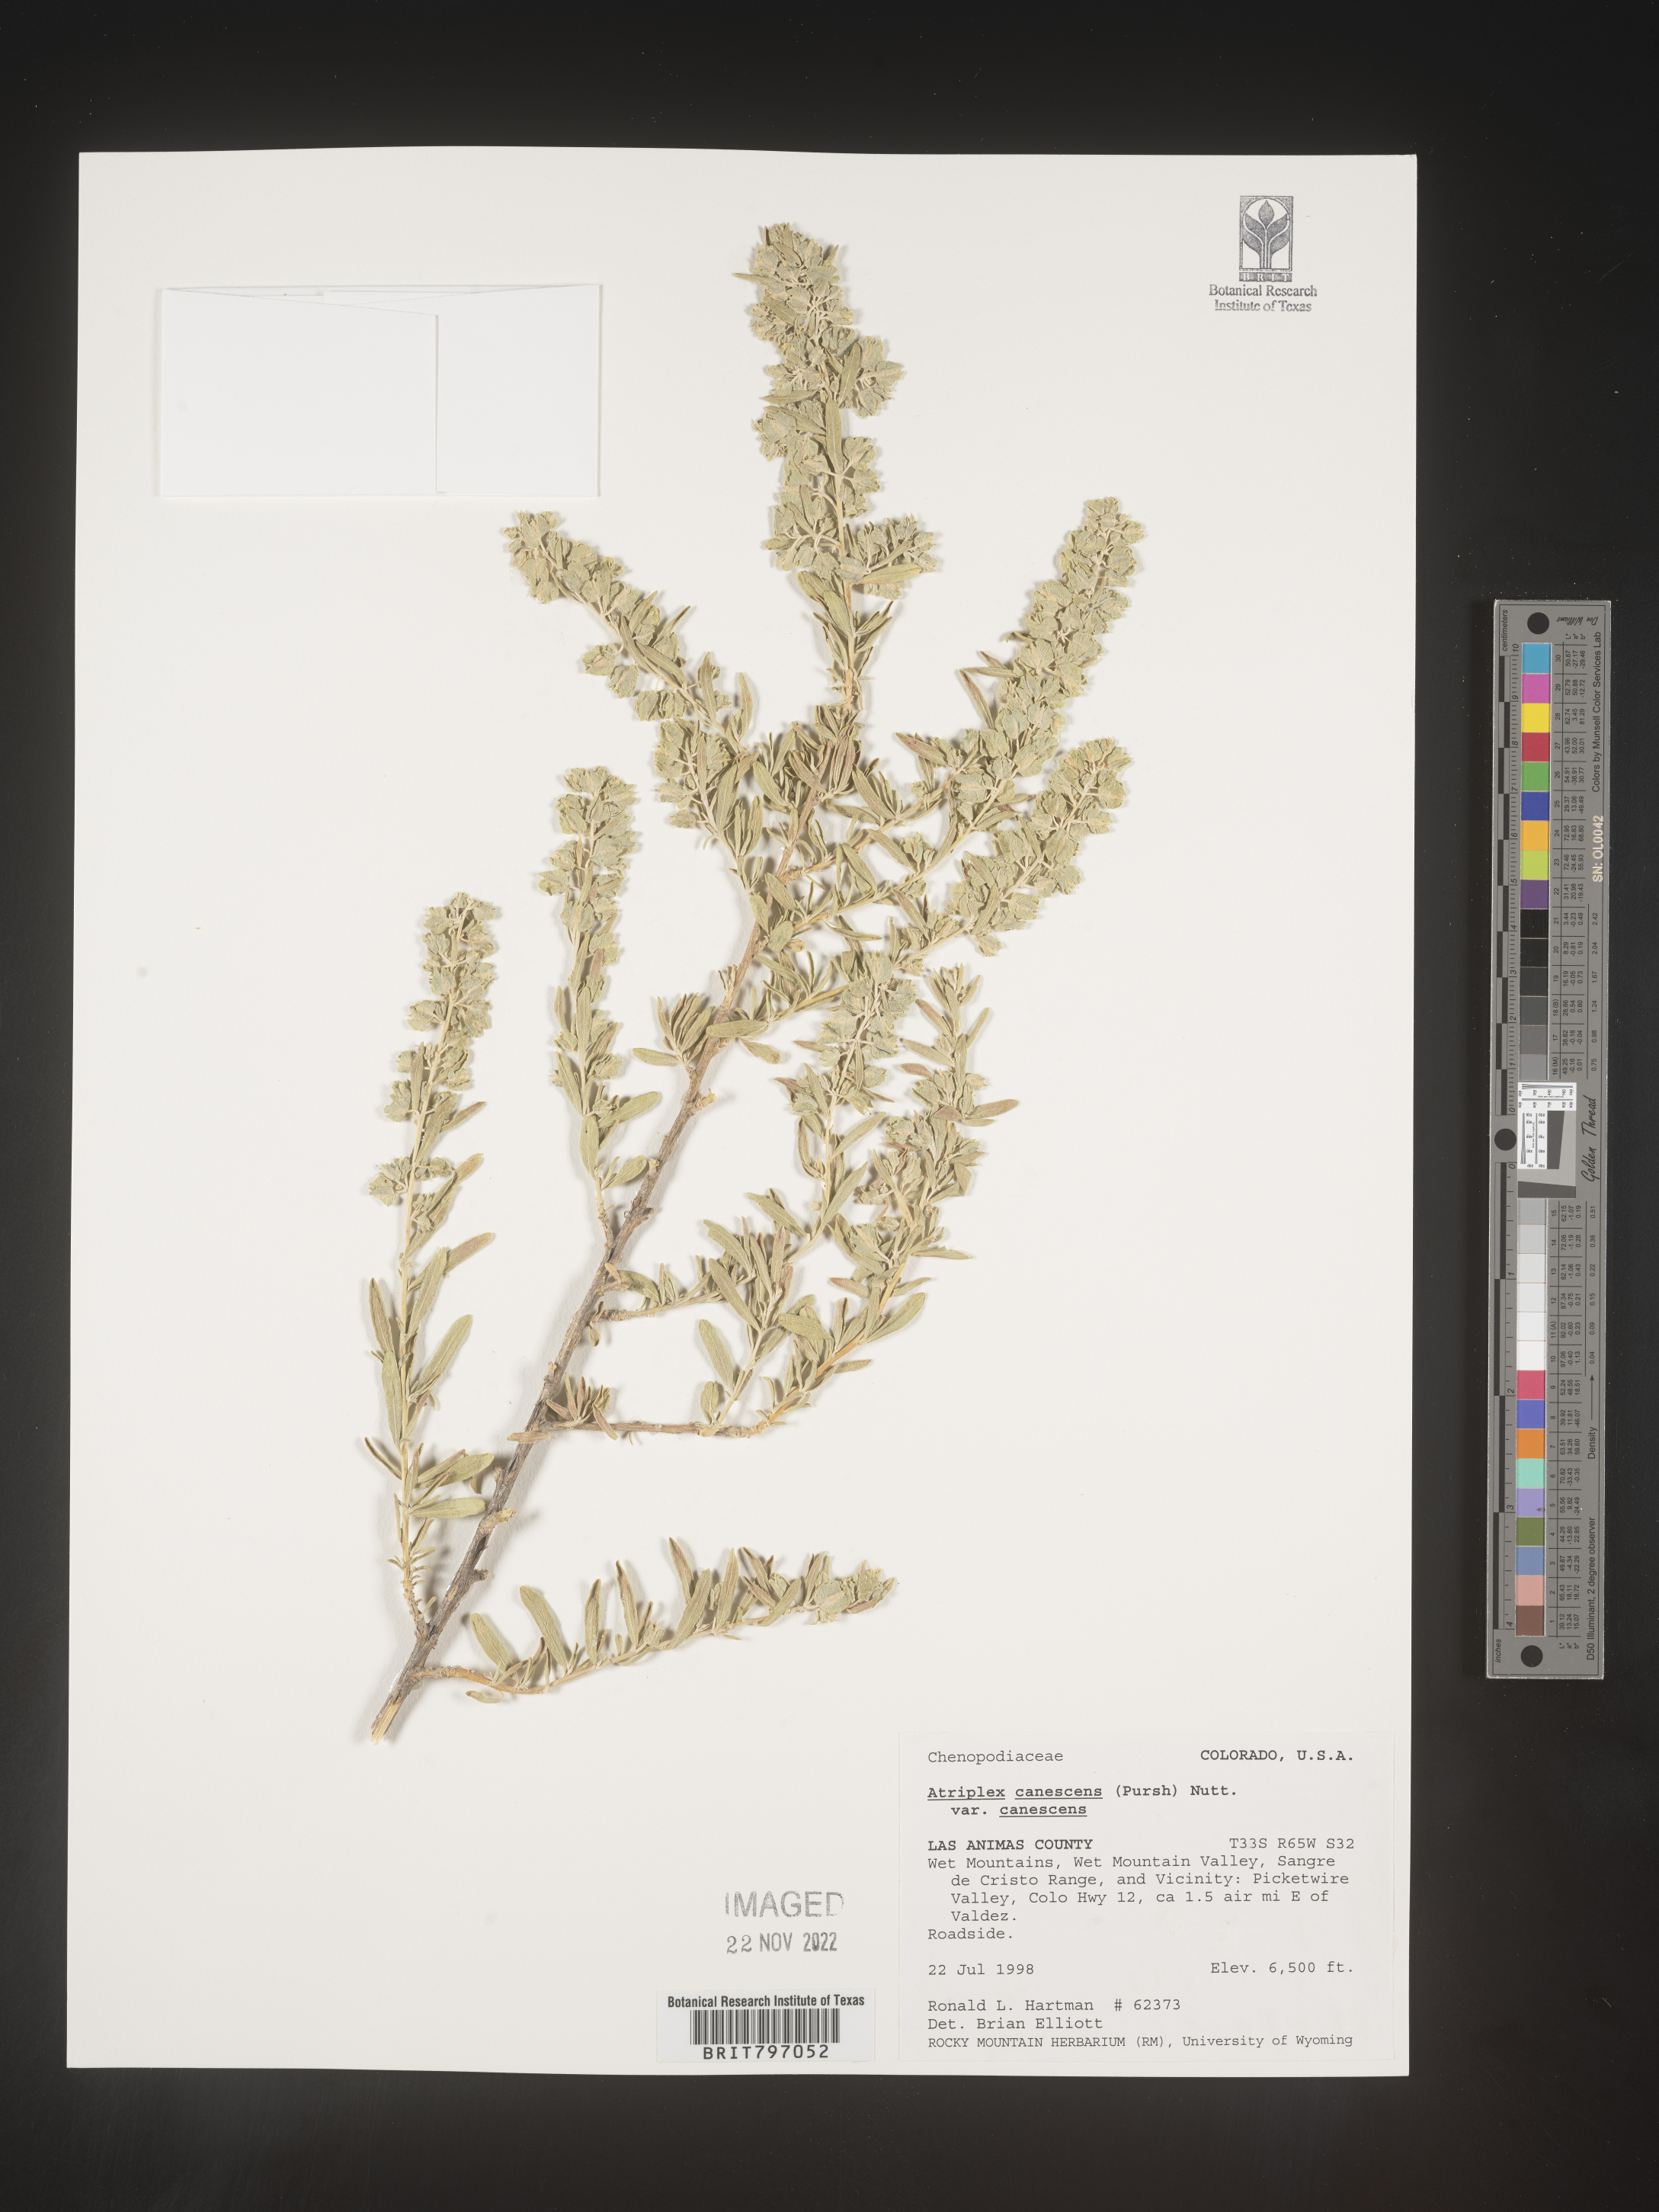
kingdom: Plantae
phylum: Tracheophyta
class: Magnoliopsida
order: Caryophyllales
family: Amaranthaceae
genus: Atriplex
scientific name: Atriplex canescens
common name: Four-wing saltbush
